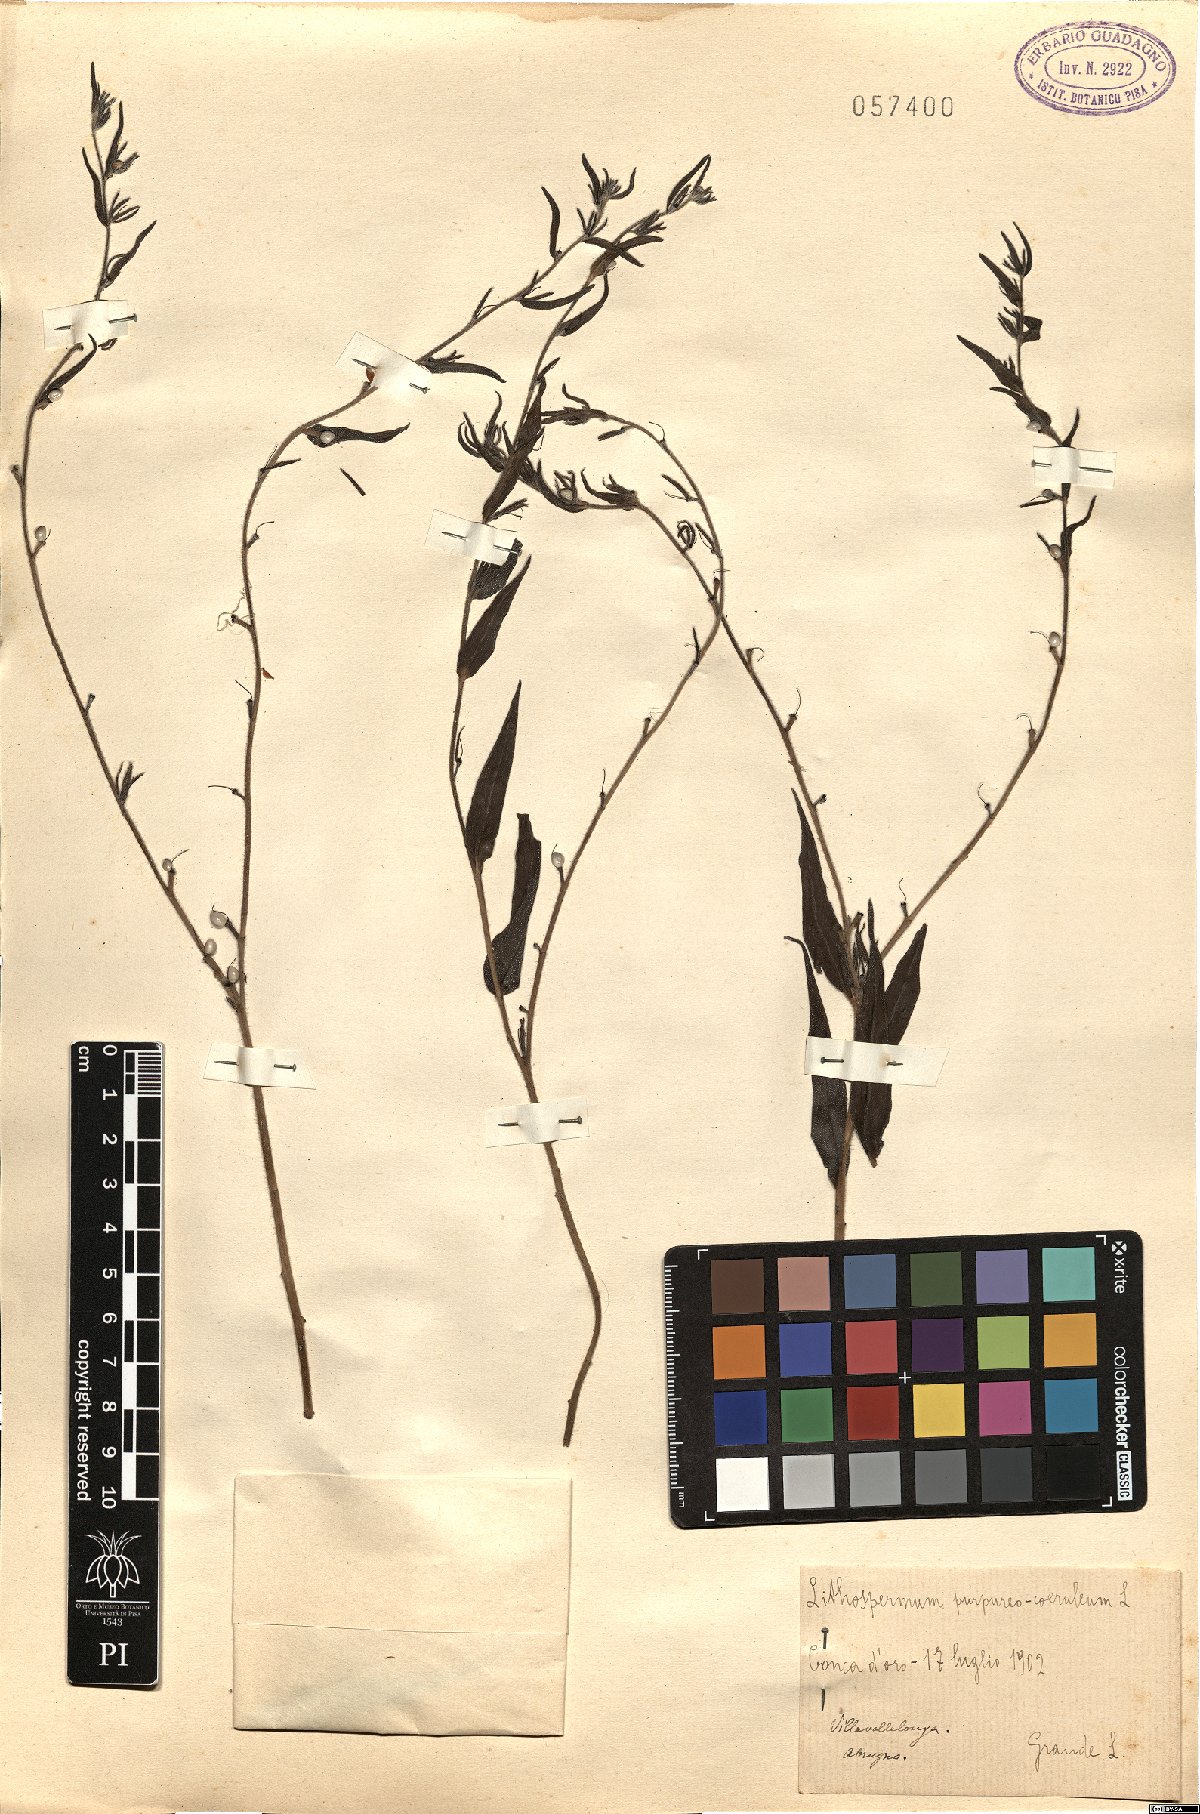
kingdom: Plantae
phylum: Tracheophyta
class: Magnoliopsida
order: Boraginales
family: Boraginaceae
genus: Aegonychon
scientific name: Aegonychon purpurocaeruleum
